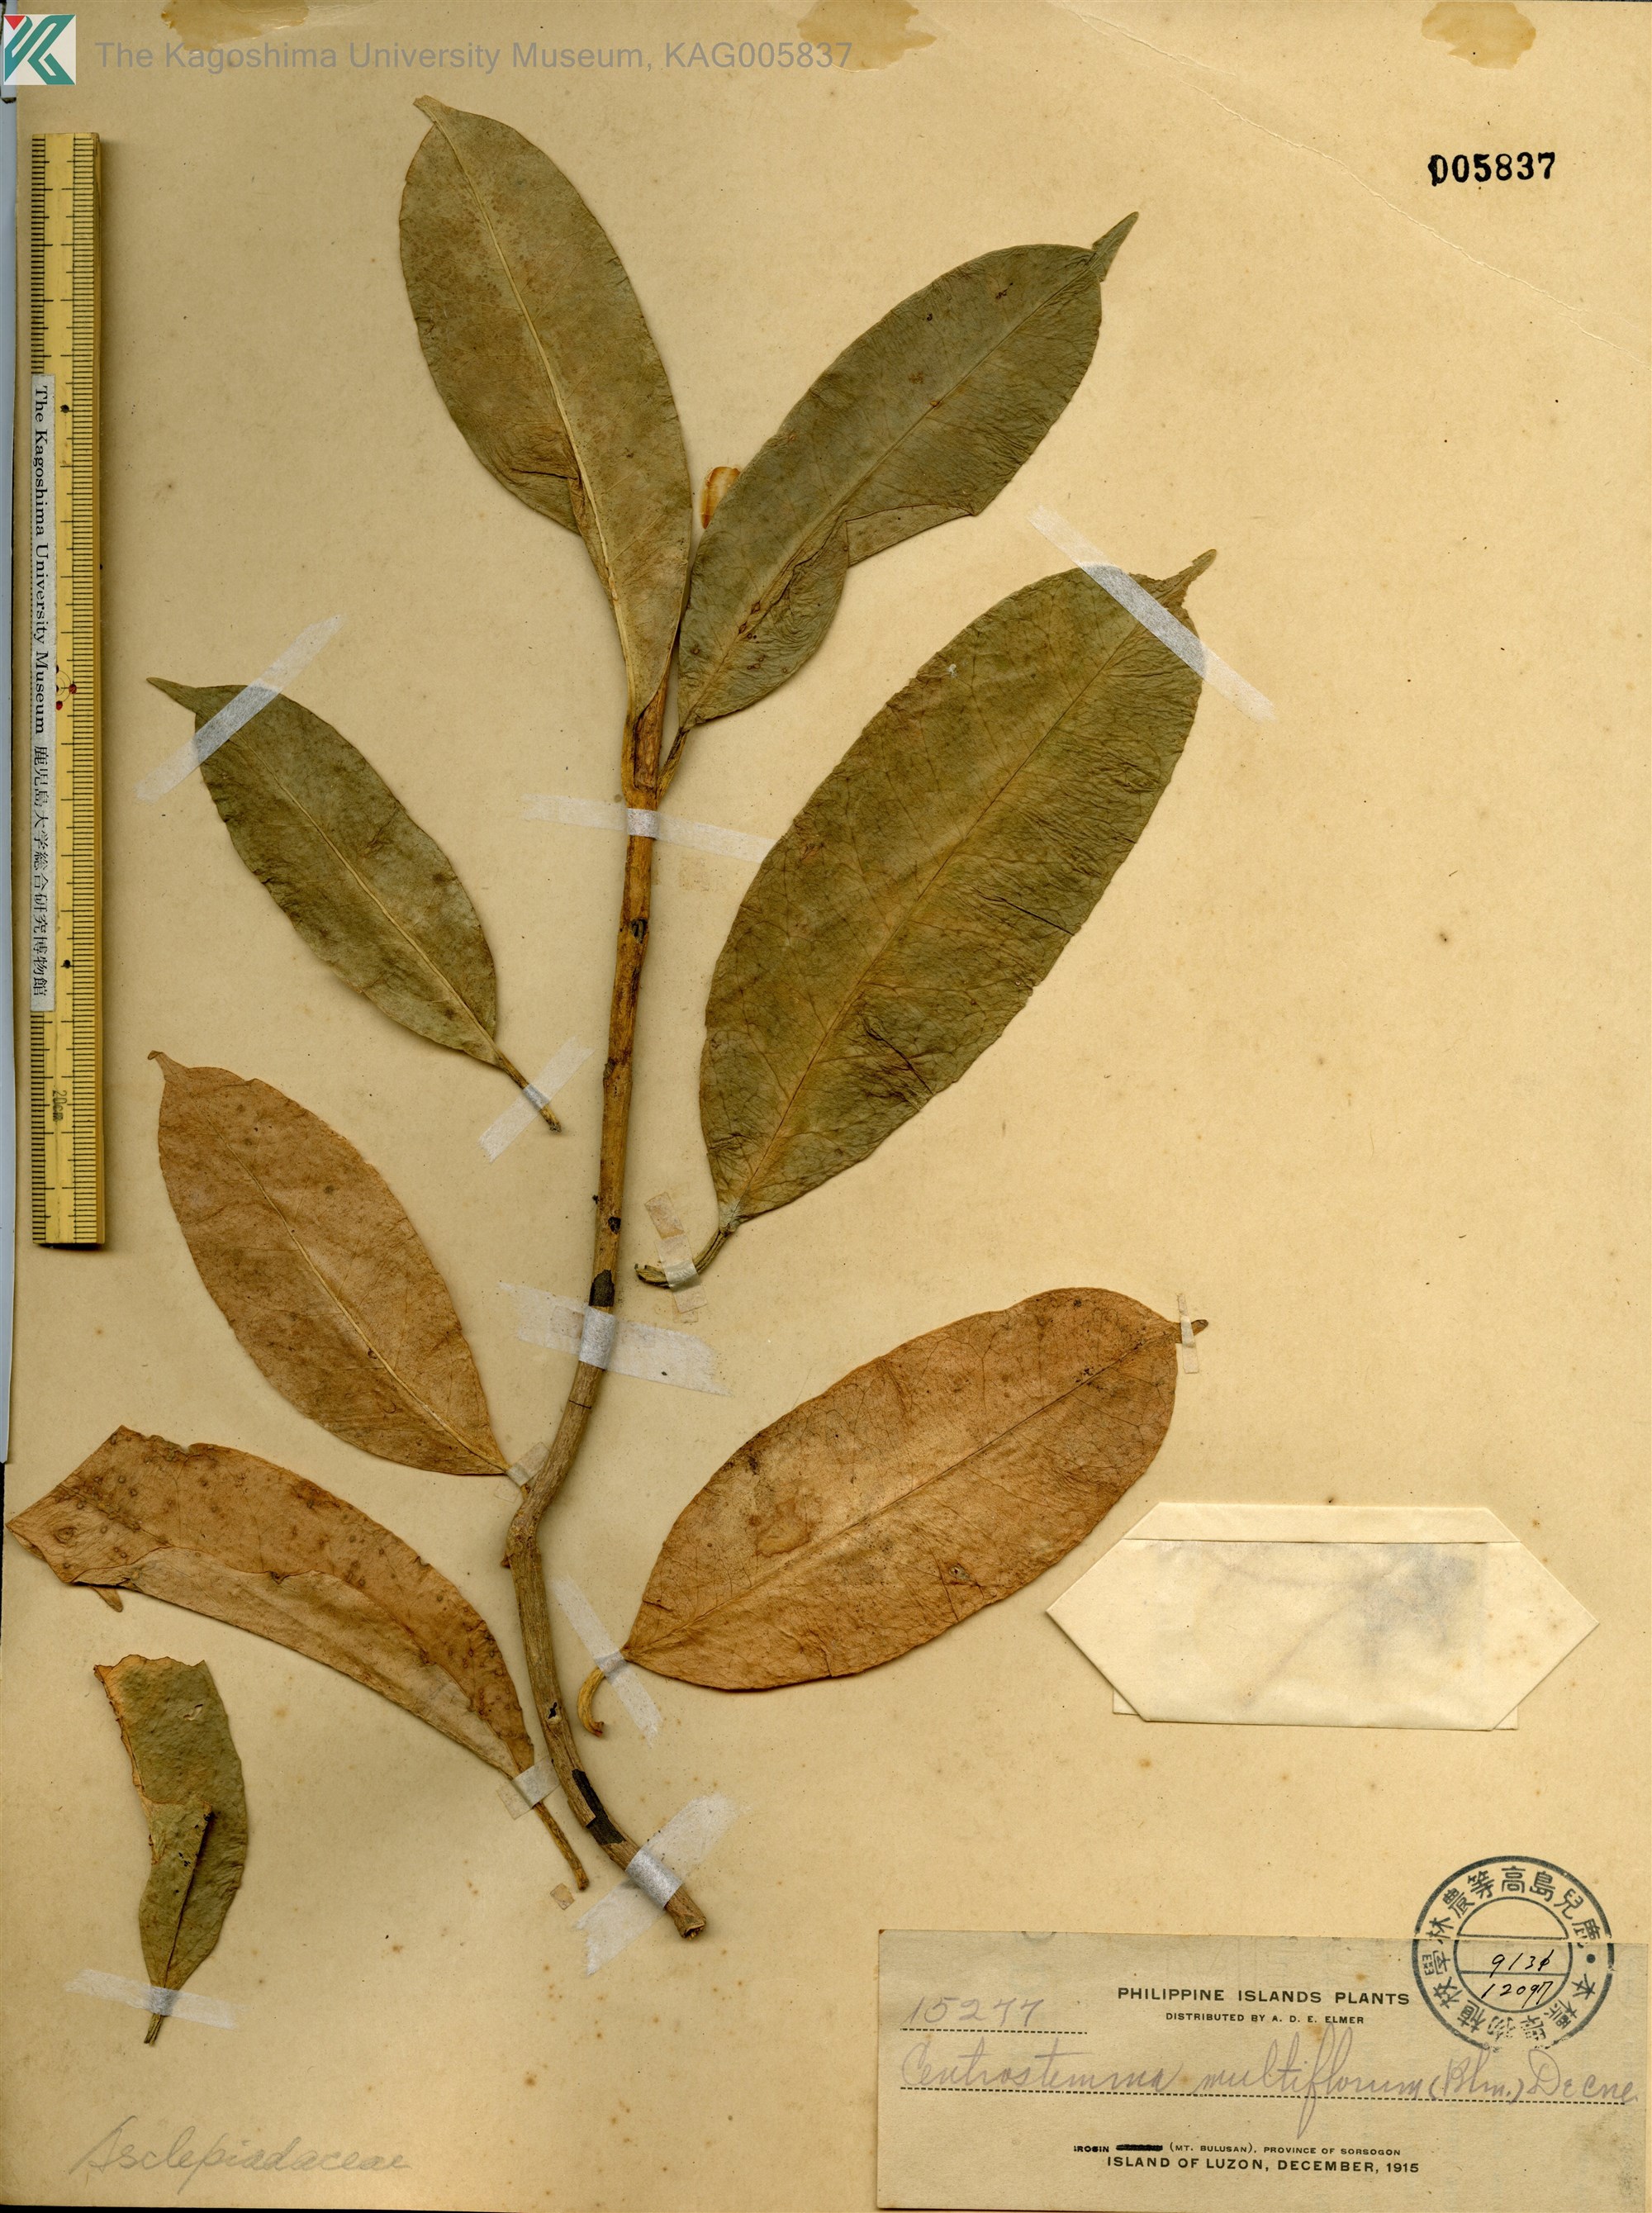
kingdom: Plantae
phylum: Tracheophyta
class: Magnoliopsida
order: Gentianales
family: Apocynaceae
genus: Hoya
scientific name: Hoya multiflora
